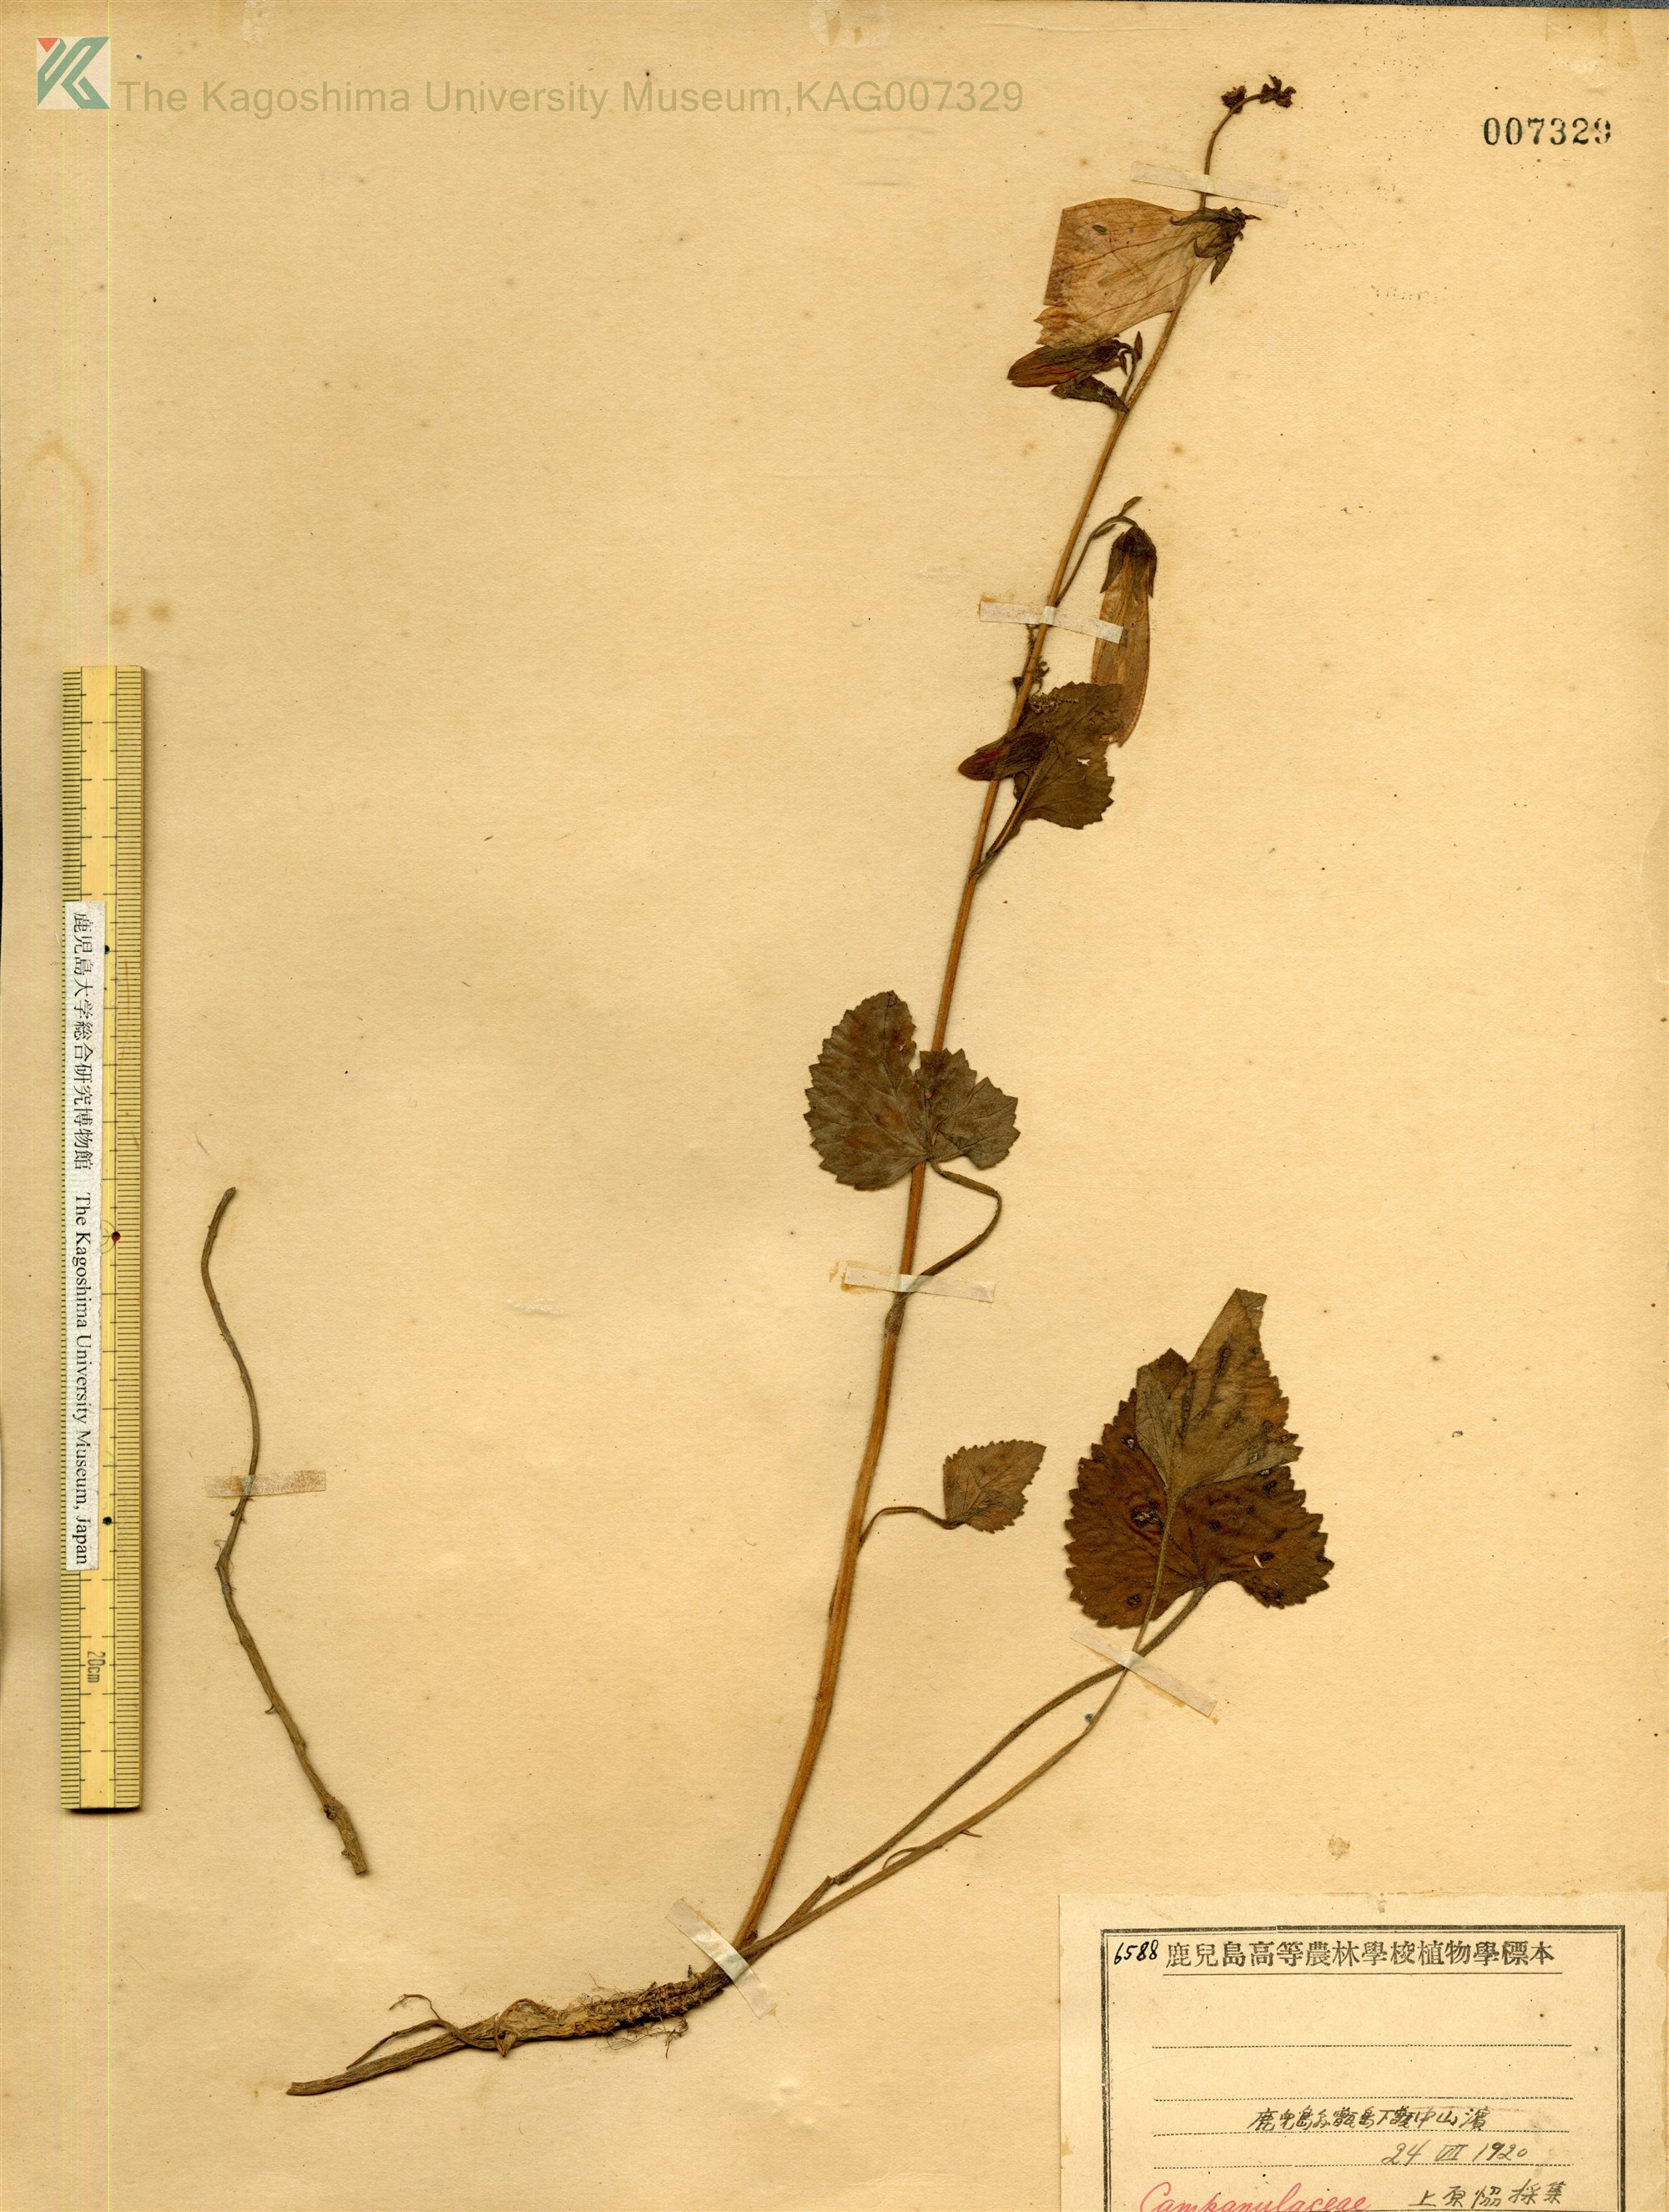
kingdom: Plantae
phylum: Tracheophyta
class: Magnoliopsida
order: Asterales
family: Campanulaceae
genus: Campanula
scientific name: Campanula punctata
